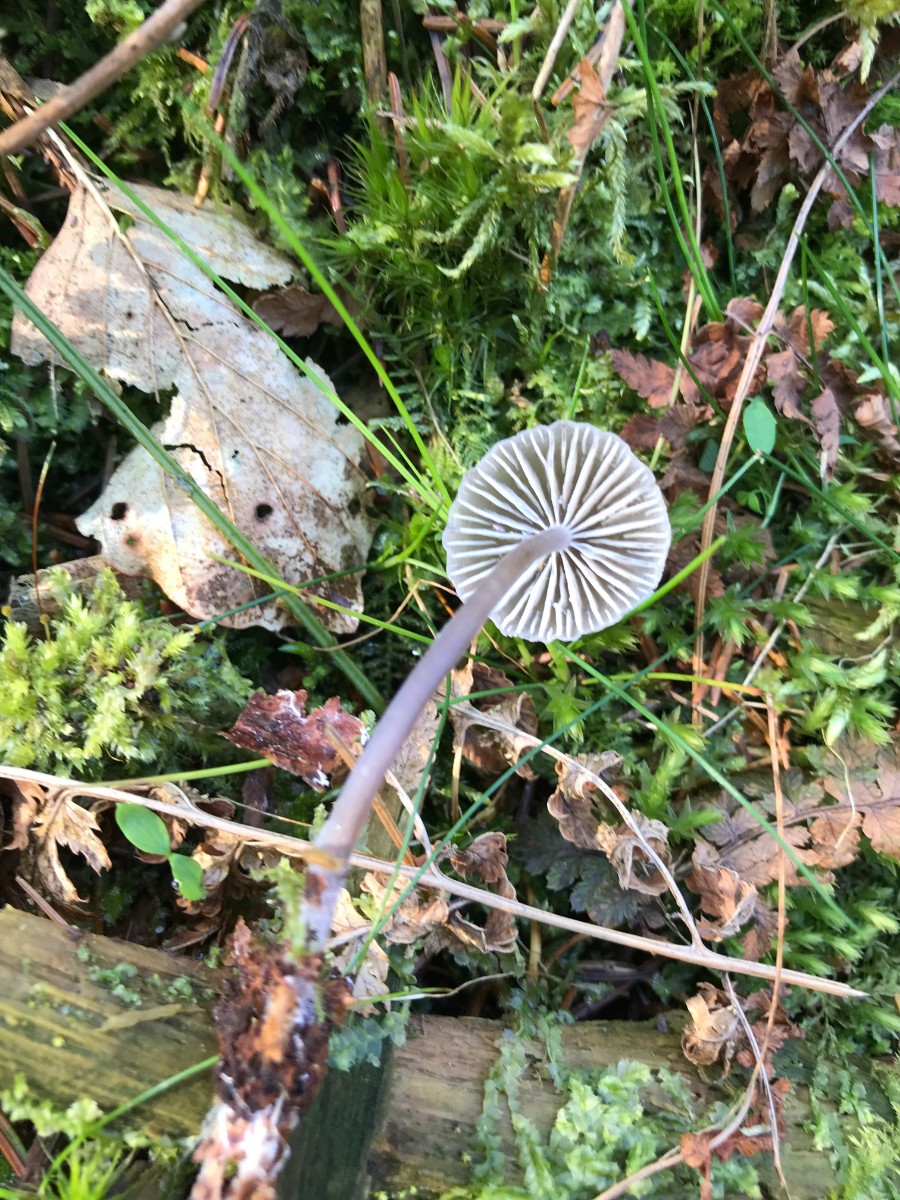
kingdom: Fungi
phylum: Basidiomycota
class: Agaricomycetes
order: Agaricales
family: Mycenaceae
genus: Mycena
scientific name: Mycena
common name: huesvamp
